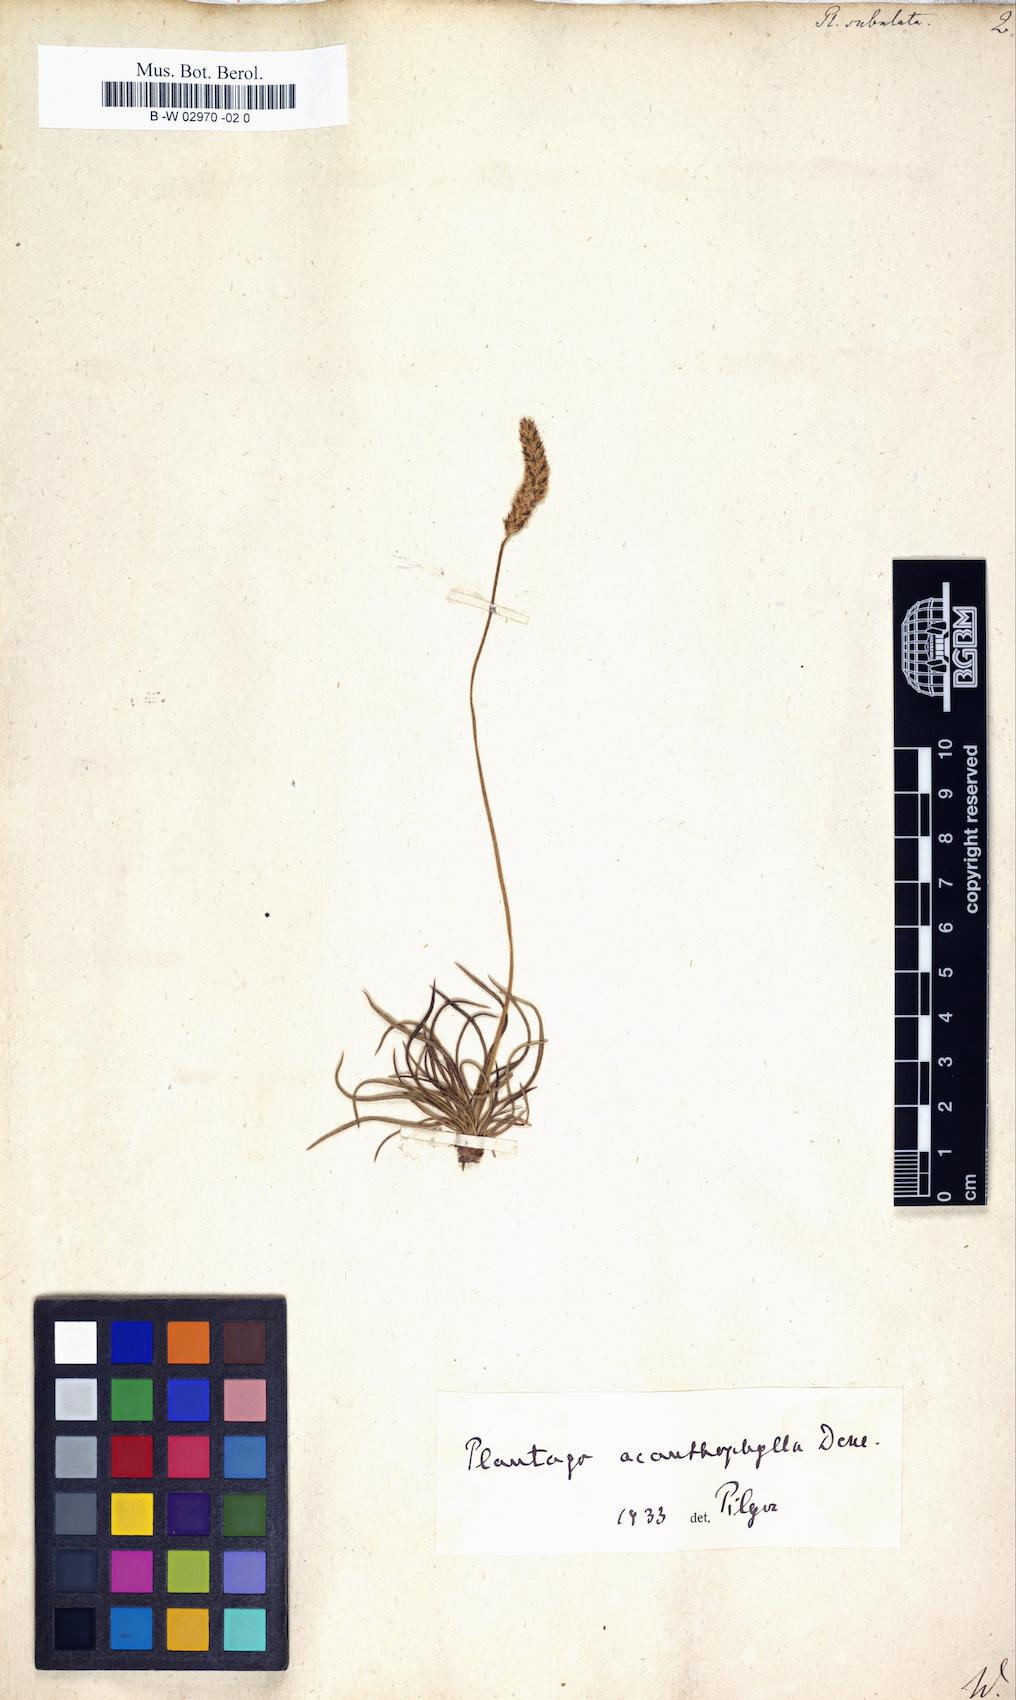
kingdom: Plantae
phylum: Tracheophyta
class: Magnoliopsida
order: Lamiales
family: Plantaginaceae
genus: Plantago
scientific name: Plantago subulata
